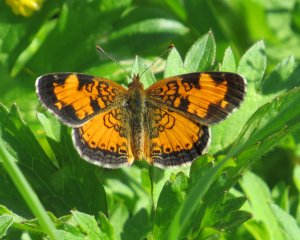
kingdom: Animalia
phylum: Arthropoda
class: Insecta
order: Lepidoptera
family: Nymphalidae
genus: Phyciodes
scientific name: Phyciodes tharos
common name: Northern Crescent
